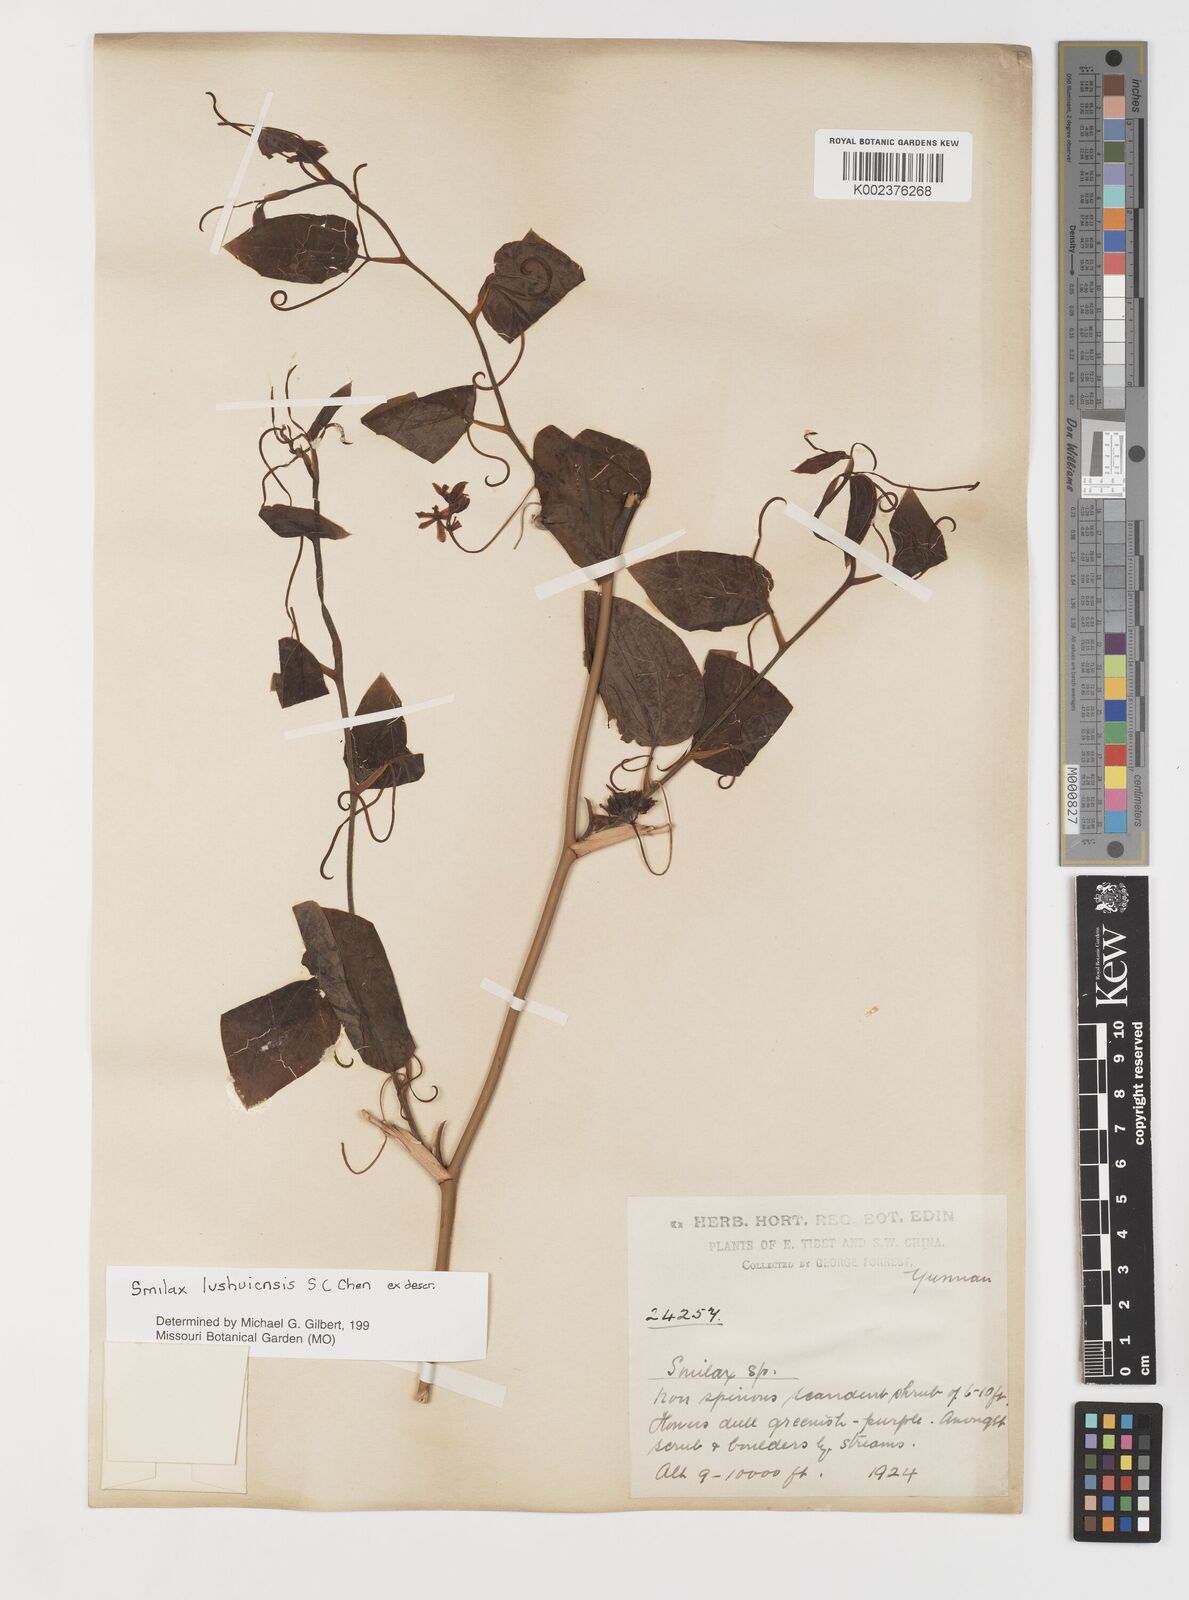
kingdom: Plantae
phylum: Tracheophyta
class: Liliopsida
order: Liliales
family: Smilacaceae
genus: Smilax
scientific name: Smilax lushuiensis
